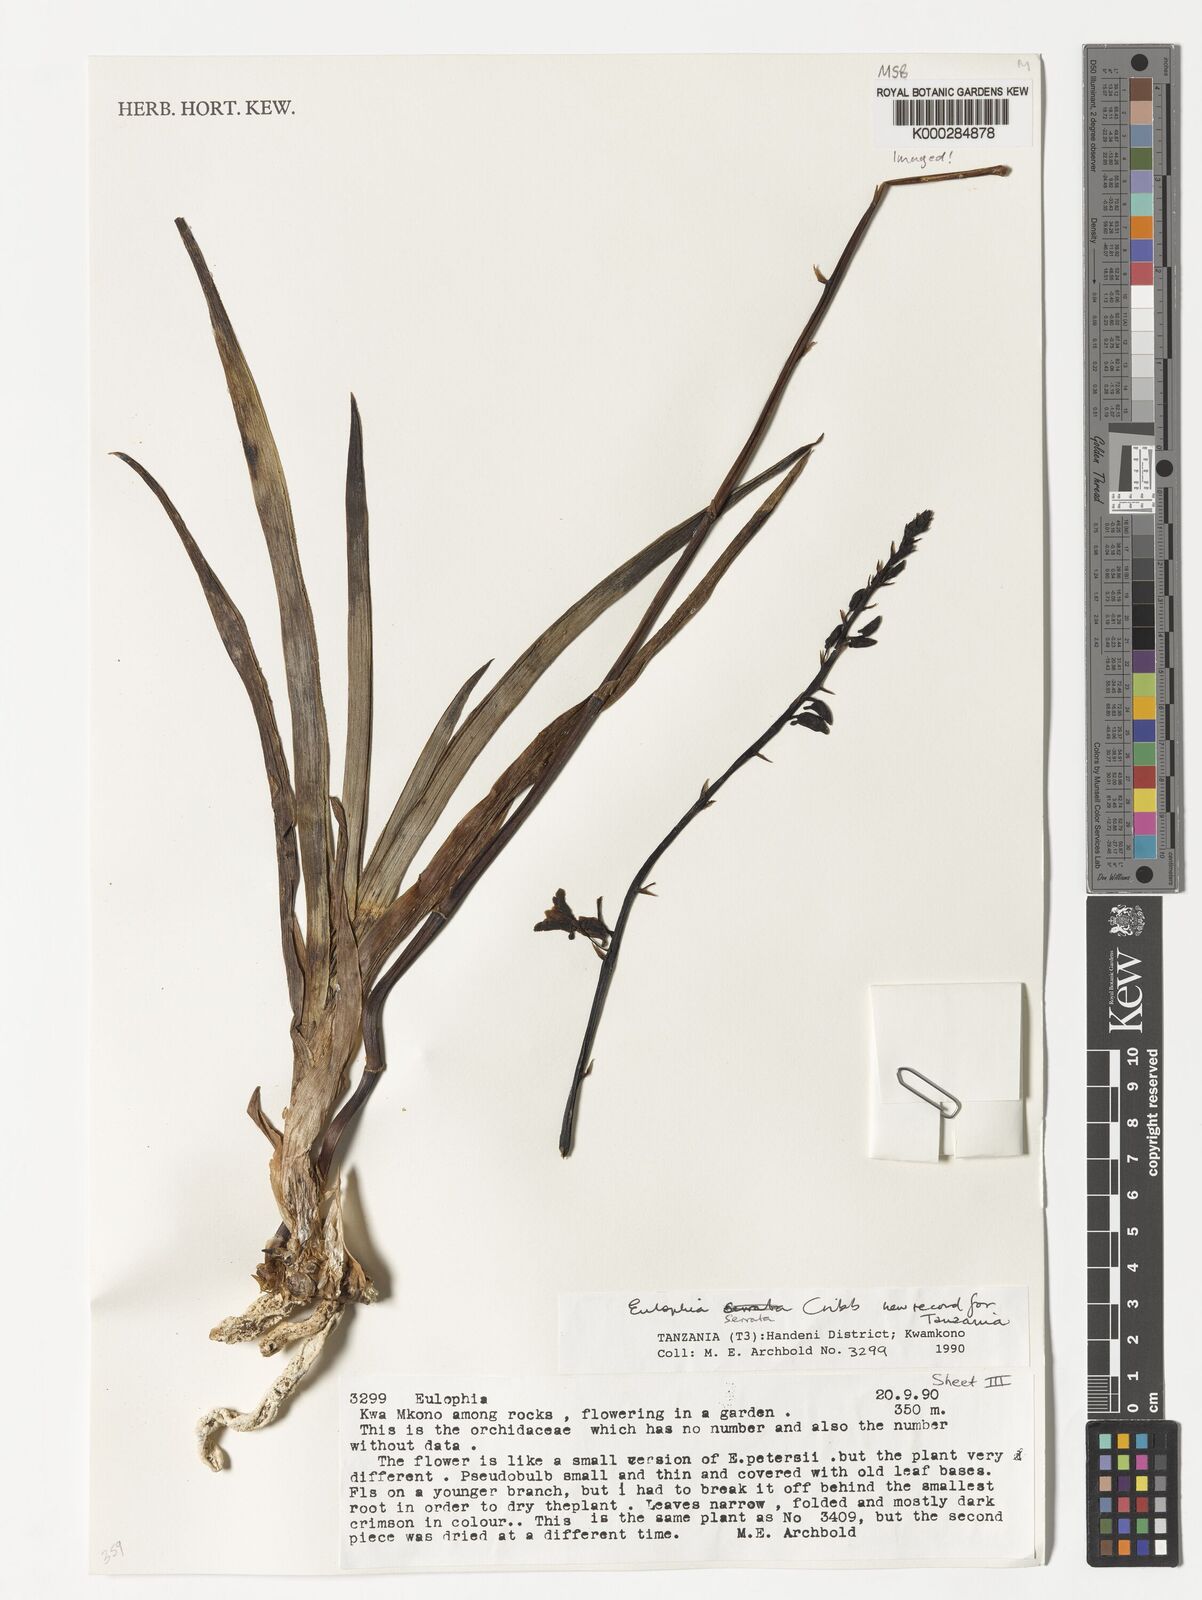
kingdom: Plantae
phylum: Tracheophyta
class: Liliopsida
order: Asparagales
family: Orchidaceae
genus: Eulophia
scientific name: Eulophia stricta
